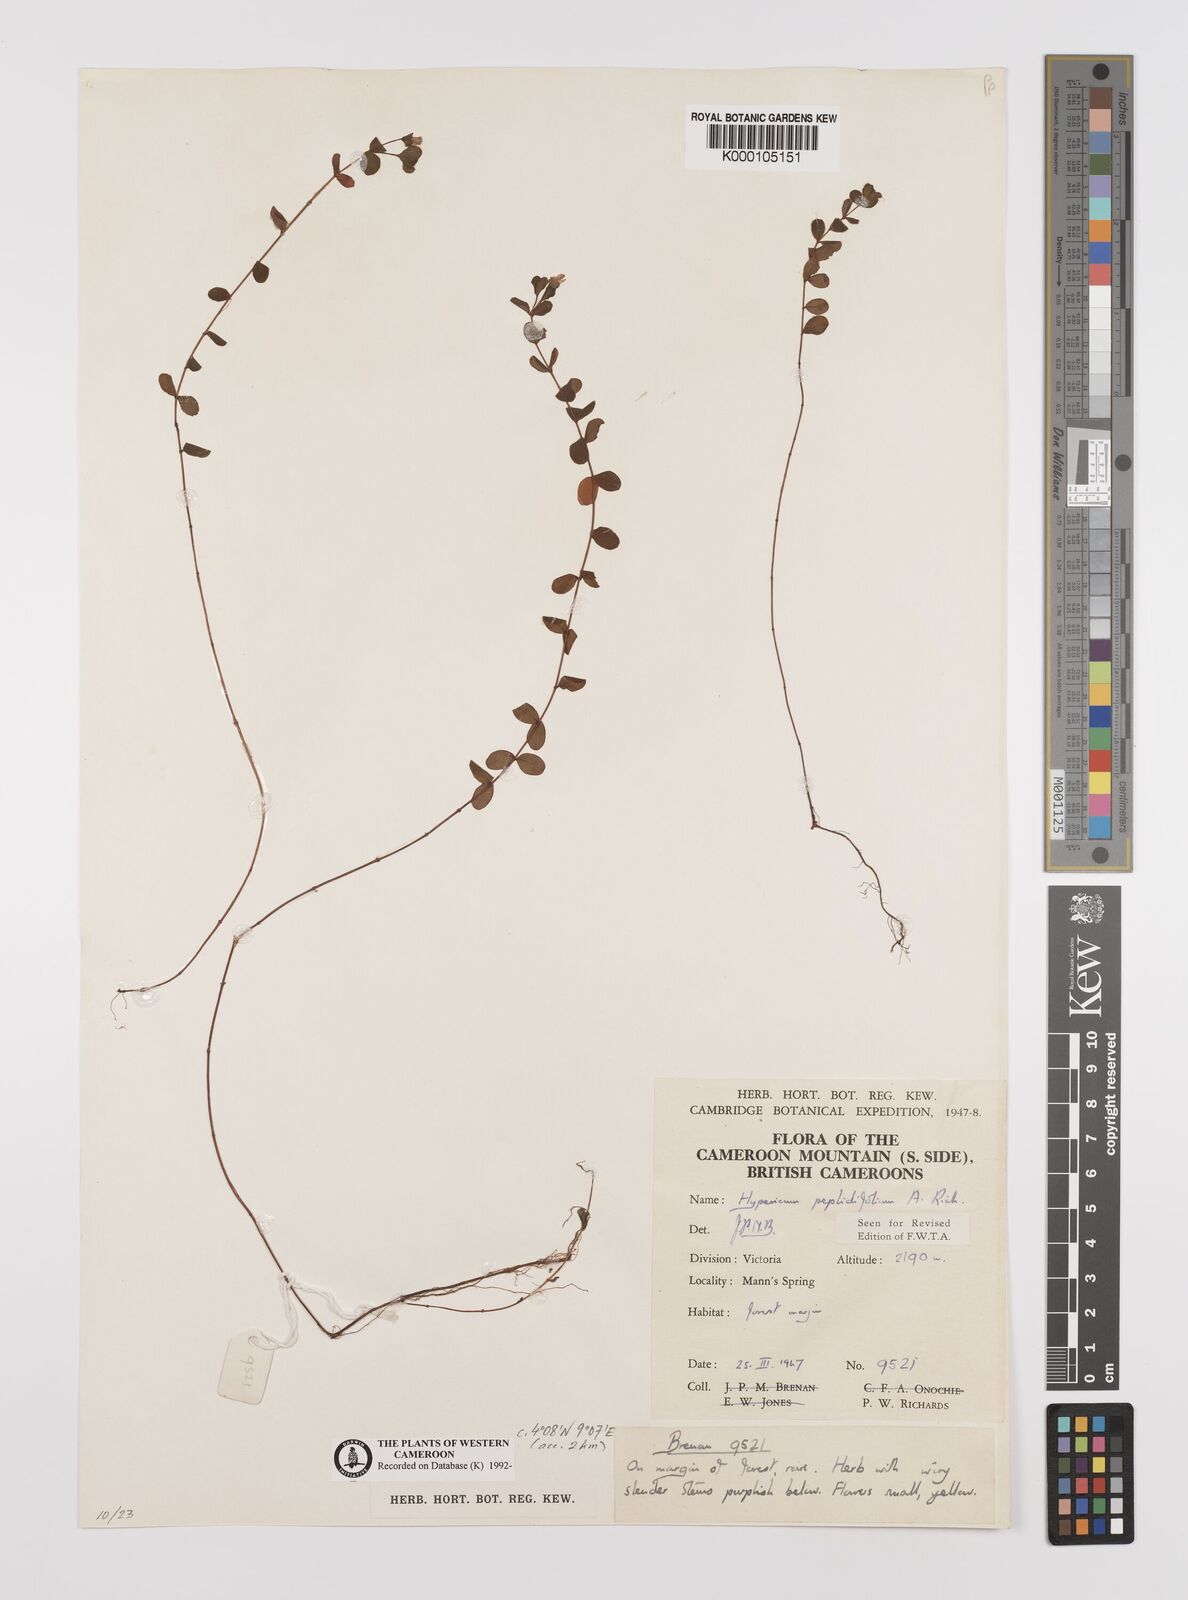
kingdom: Plantae
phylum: Tracheophyta
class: Magnoliopsida
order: Malpighiales
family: Hypericaceae
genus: Hypericum
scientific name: Hypericum peplidifolium
